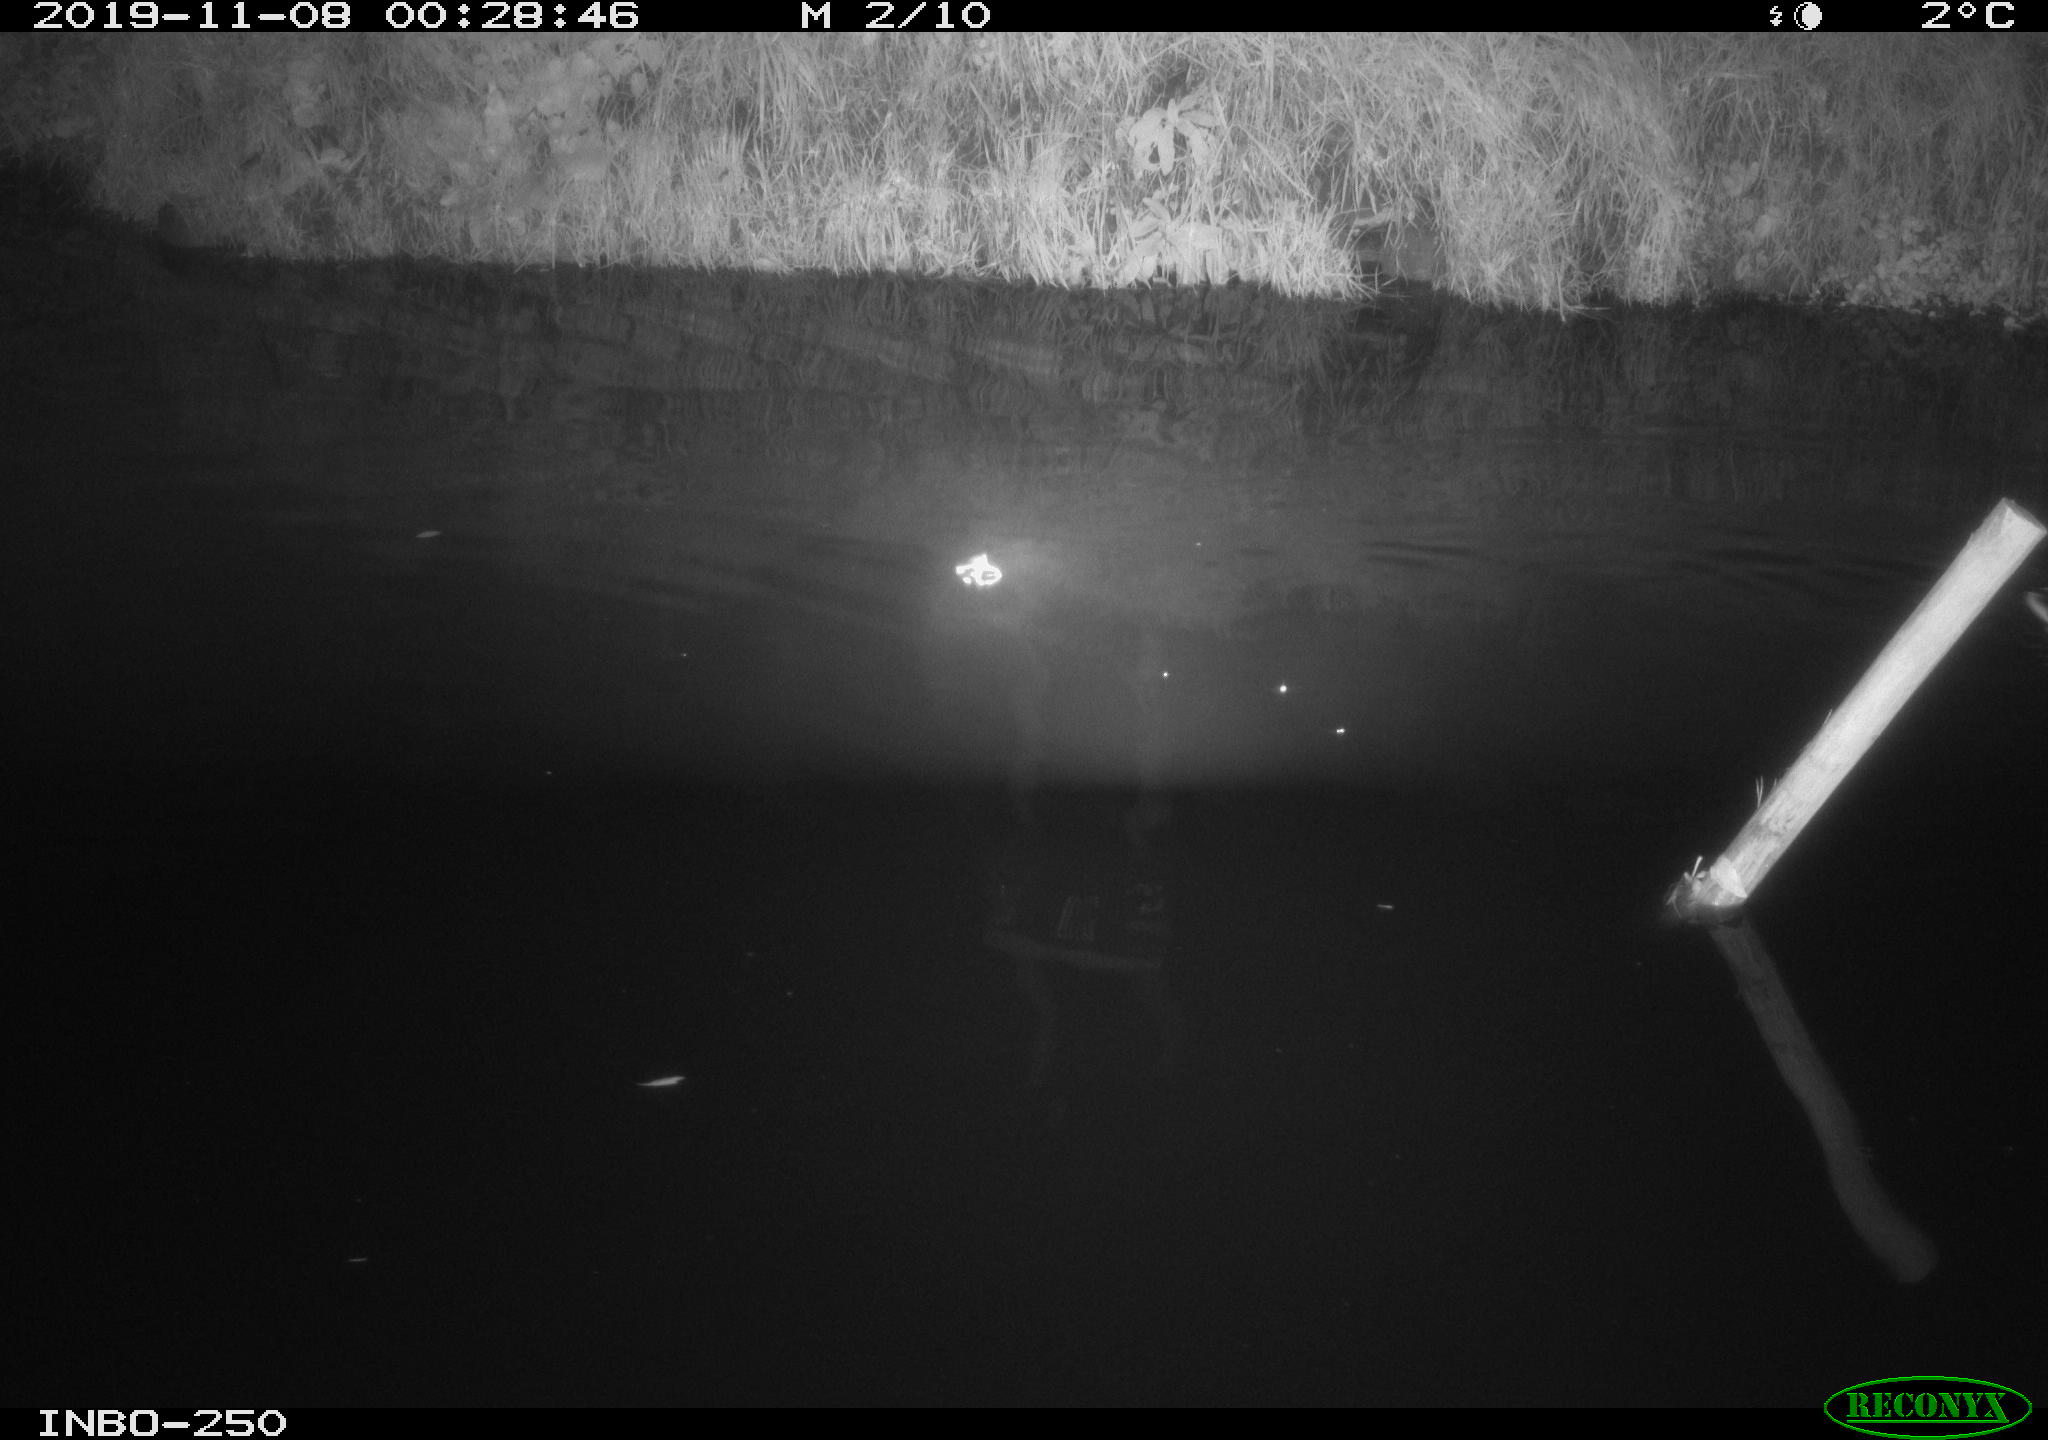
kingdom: Animalia
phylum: Chordata
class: Aves
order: Anseriformes
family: Anatidae
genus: Anas
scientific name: Anas platyrhynchos
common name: Mallard
